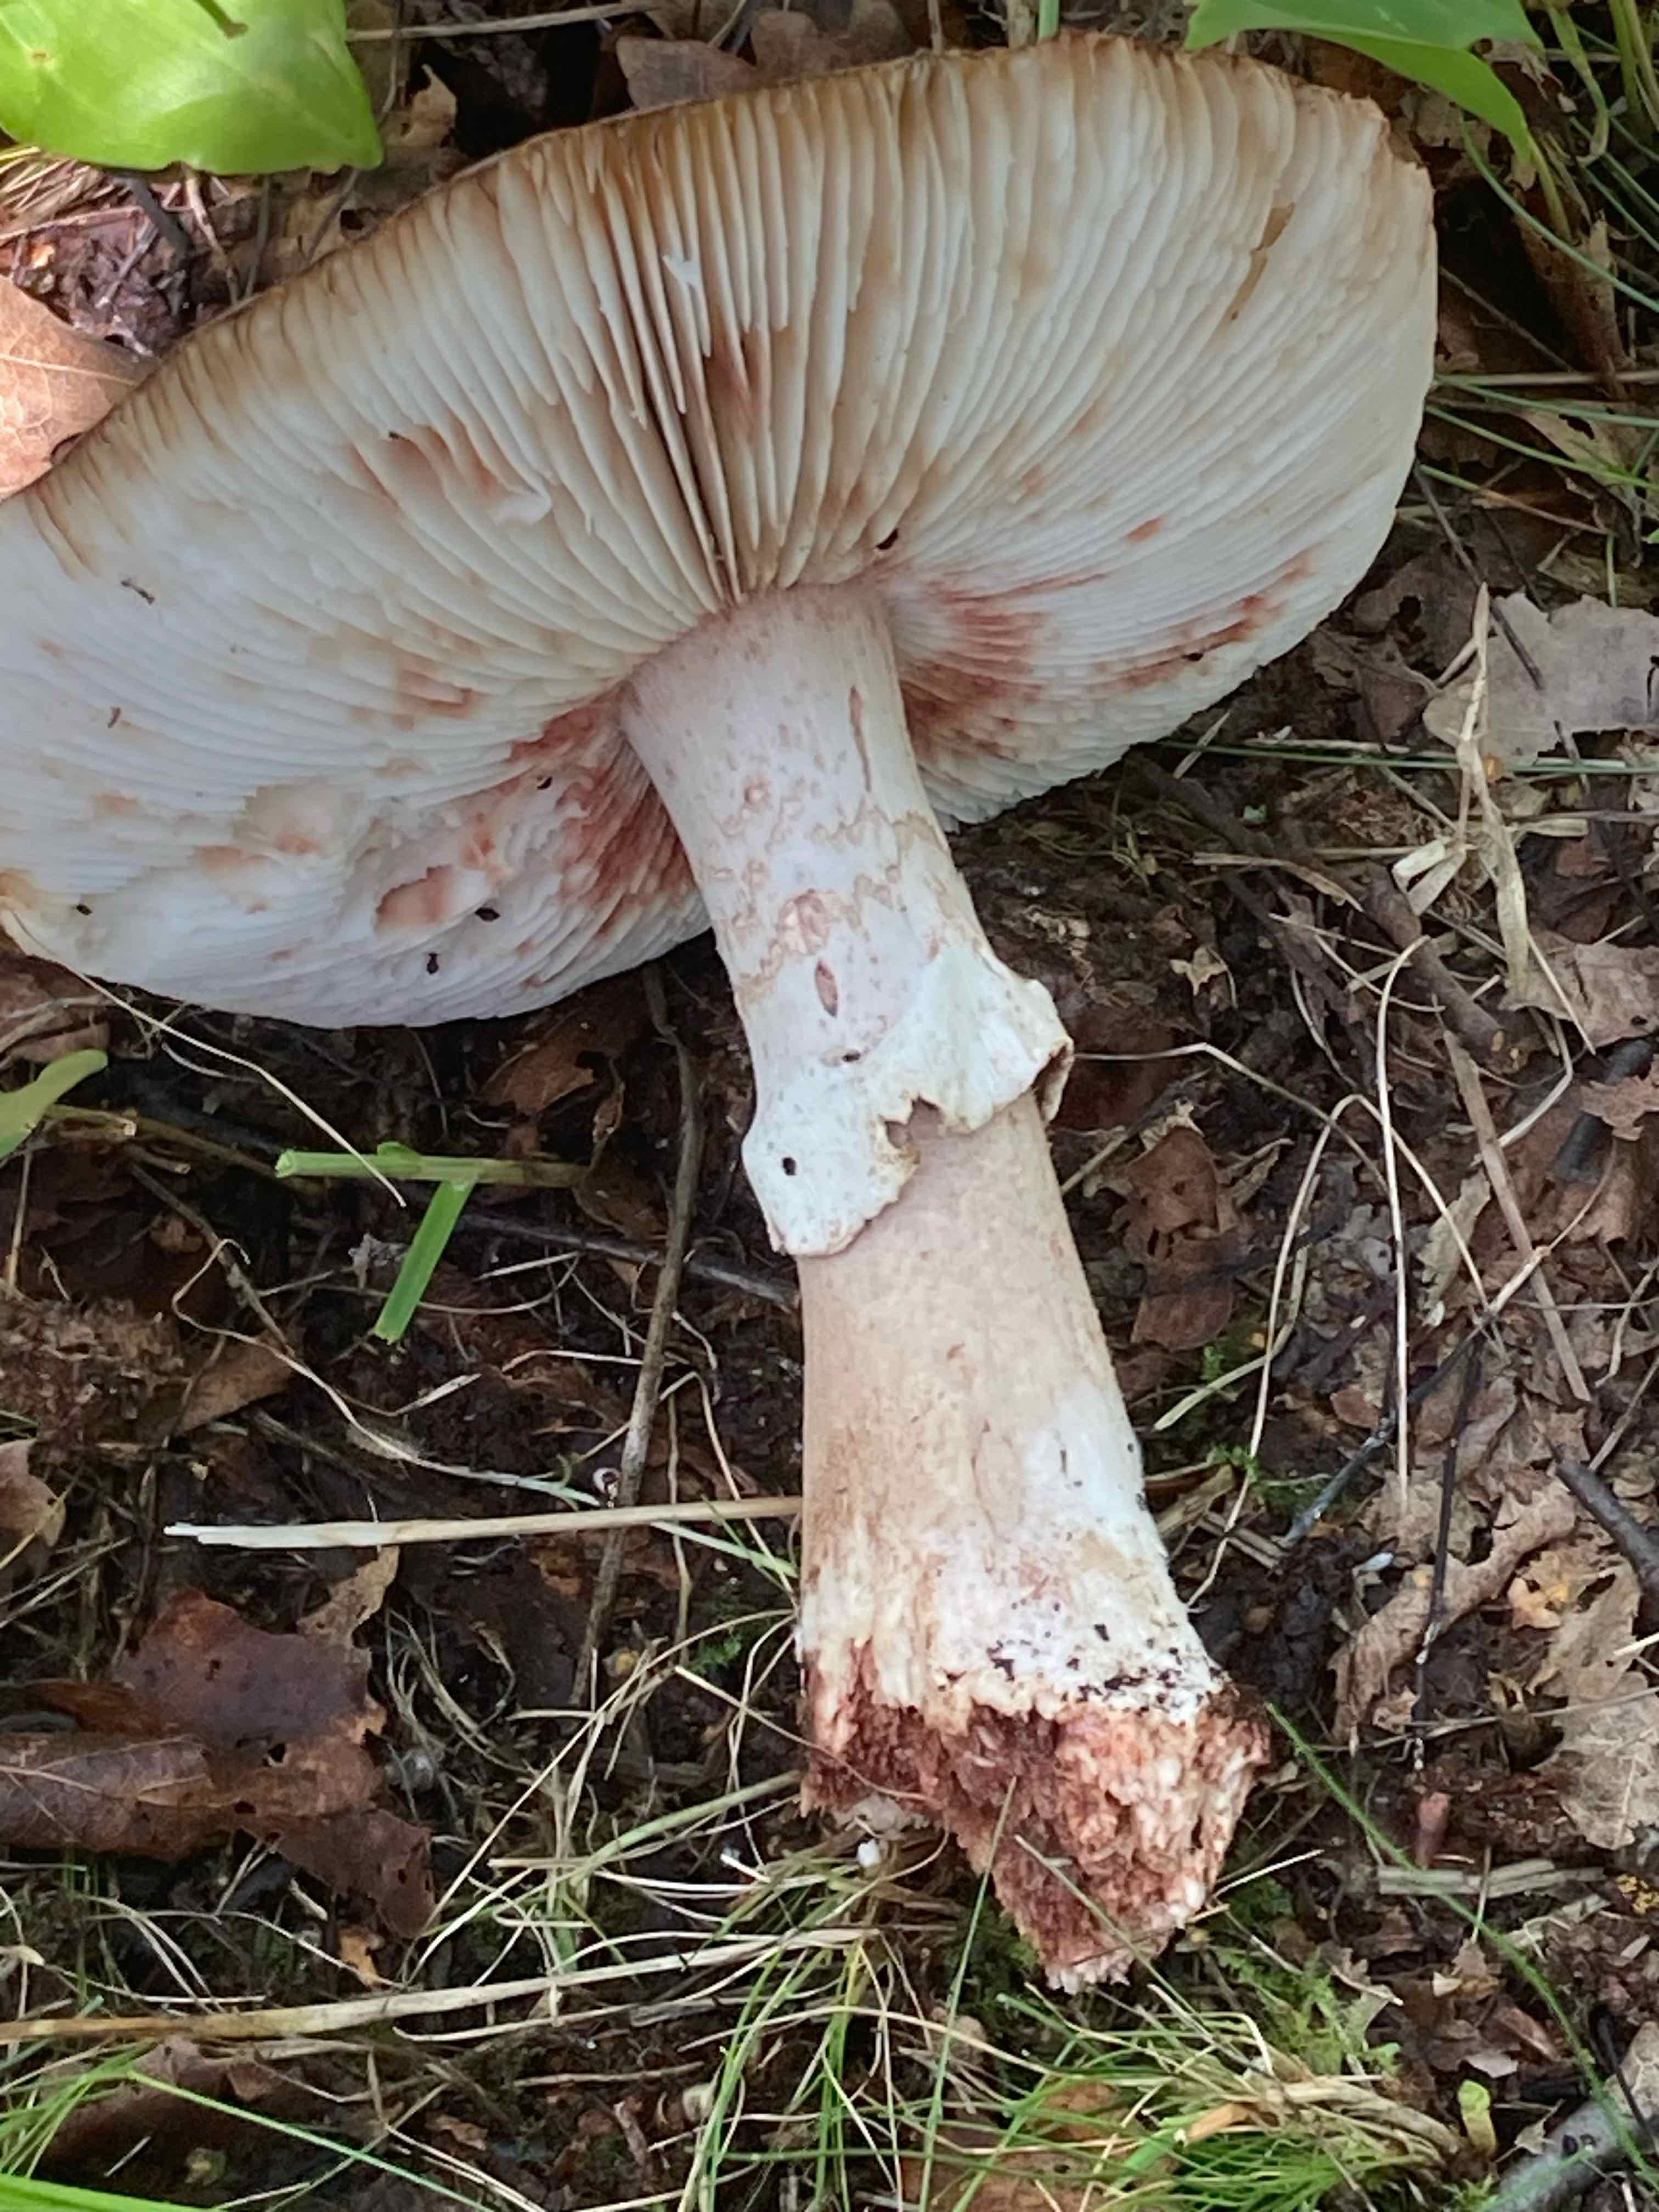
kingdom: Fungi
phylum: Basidiomycota
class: Agaricomycetes
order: Agaricales
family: Amanitaceae
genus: Amanita
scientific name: Amanita rubescens
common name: rødmende fluesvamp
